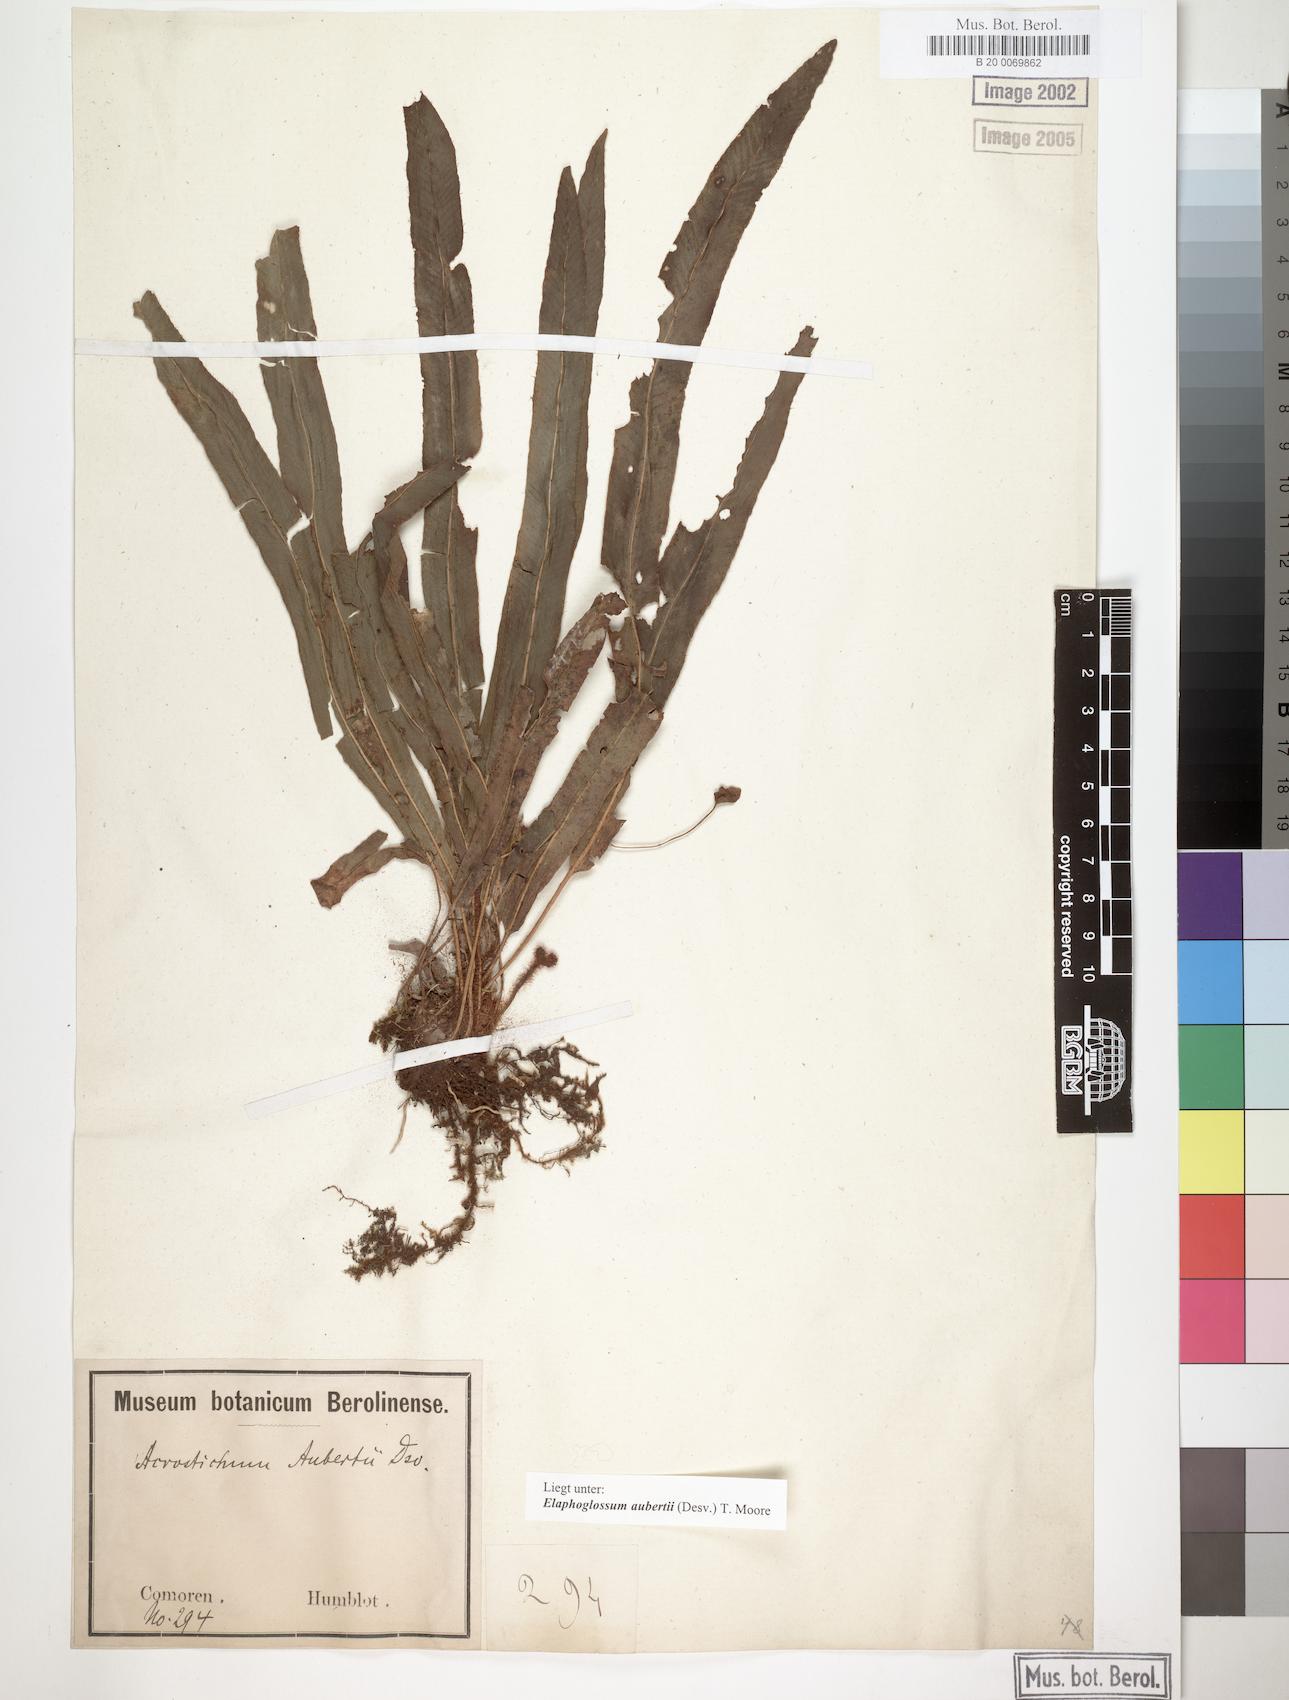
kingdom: Plantae
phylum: Tracheophyta
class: Polypodiopsida
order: Polypodiales
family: Dryopteridaceae
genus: Elaphoglossum
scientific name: Elaphoglossum aubertii
